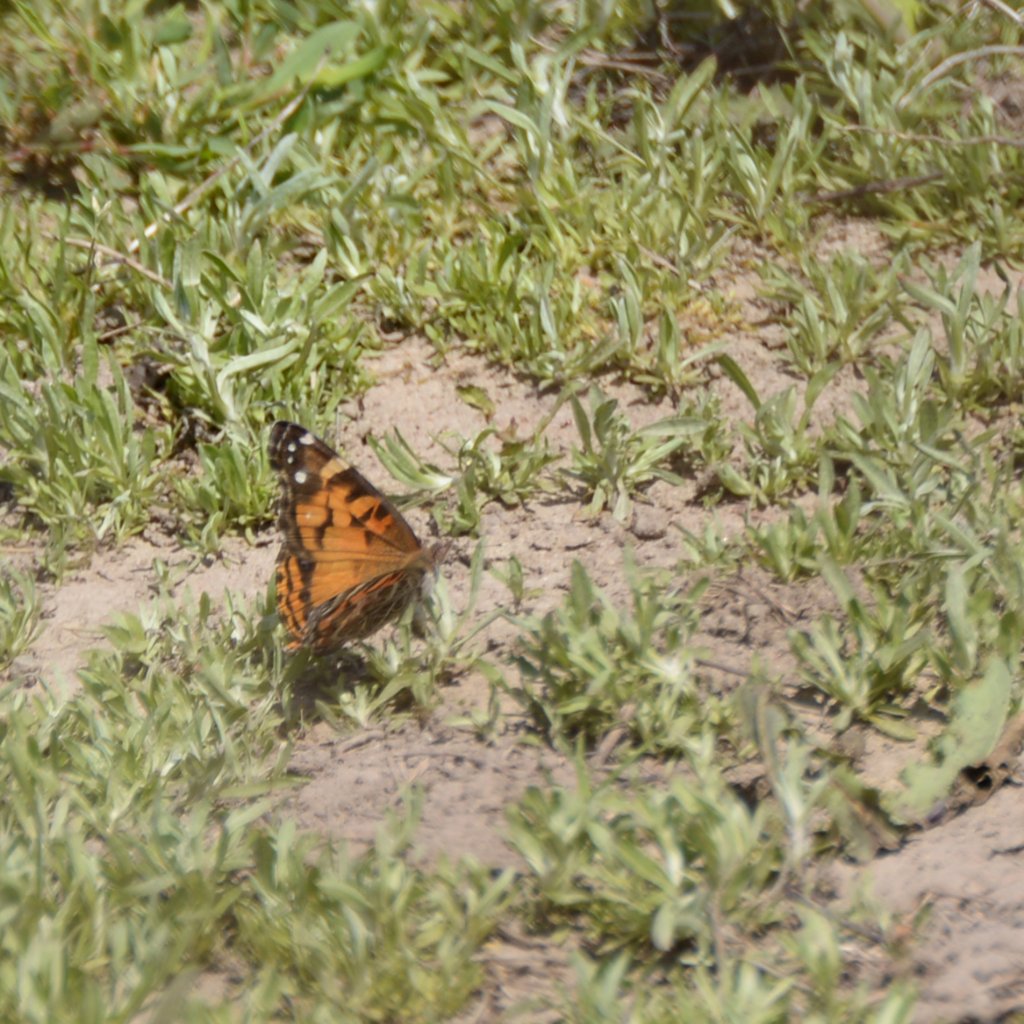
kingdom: Animalia
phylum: Arthropoda
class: Insecta
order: Lepidoptera
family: Nymphalidae
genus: Vanessa
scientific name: Vanessa virginiensis
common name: American Lady
